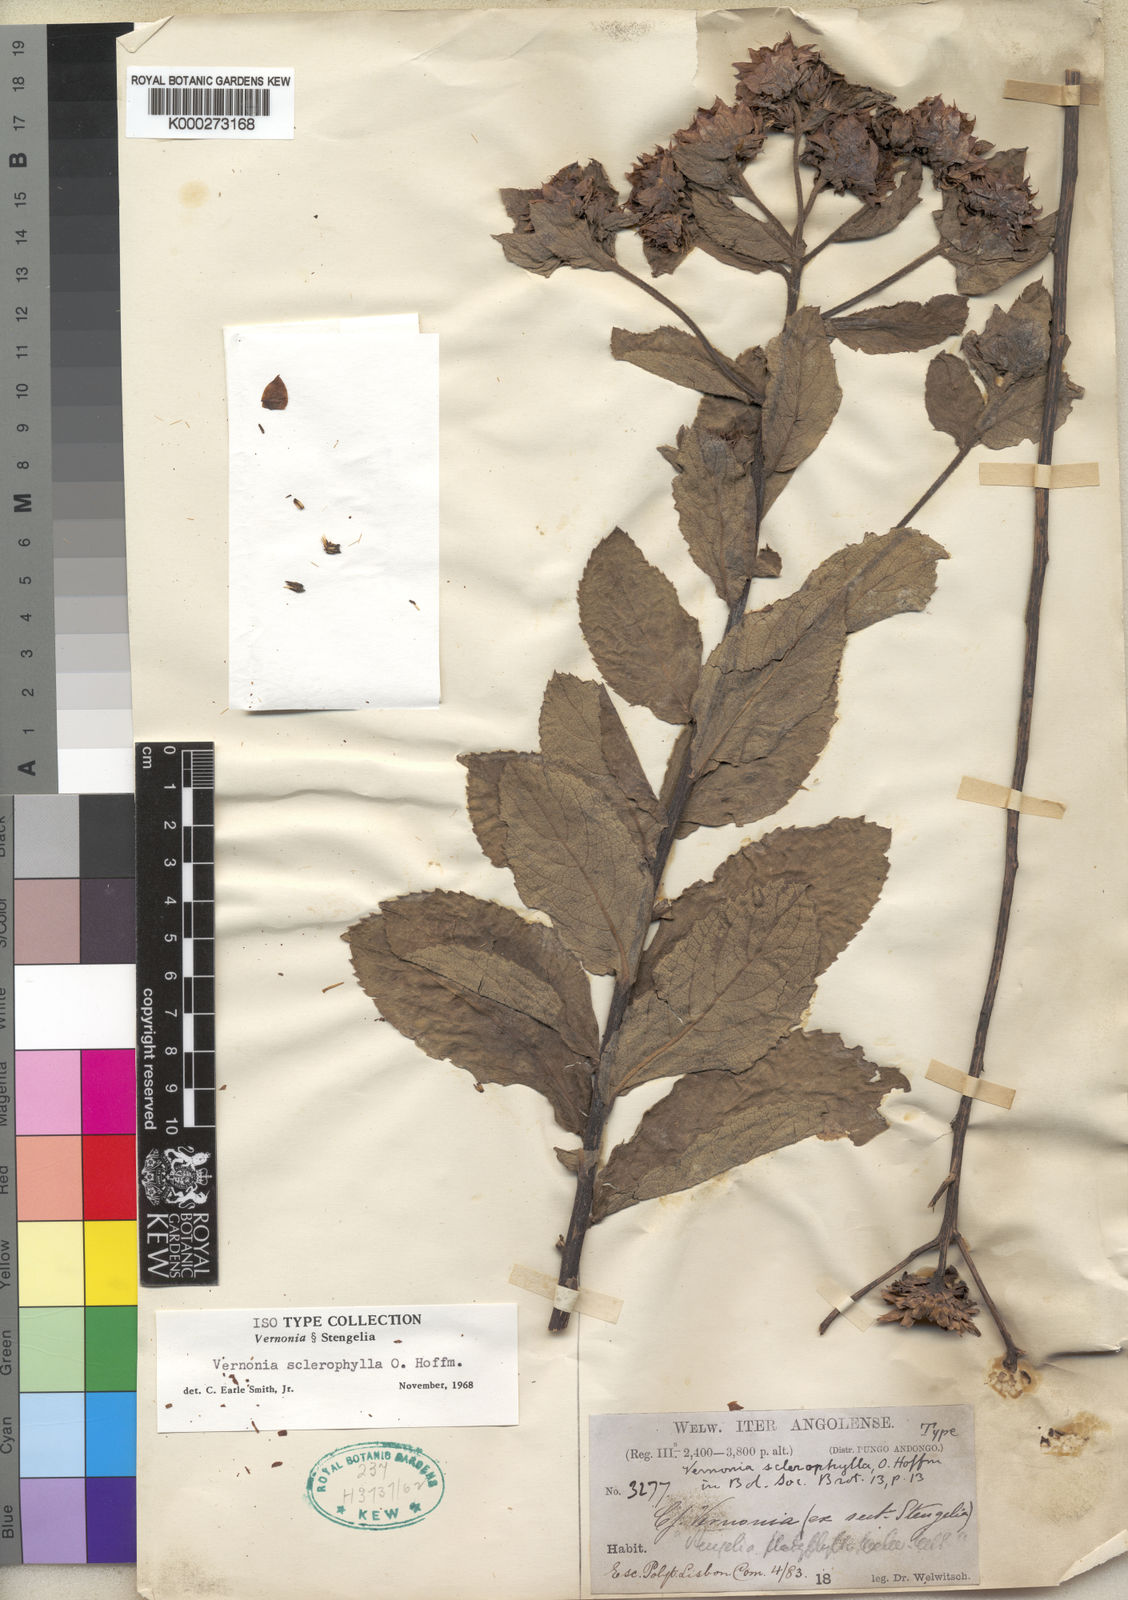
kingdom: Plantae
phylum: Tracheophyta
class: Magnoliopsida
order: Asterales
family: Asteraceae
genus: Vernonia
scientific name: Vernonia sclerophylla
